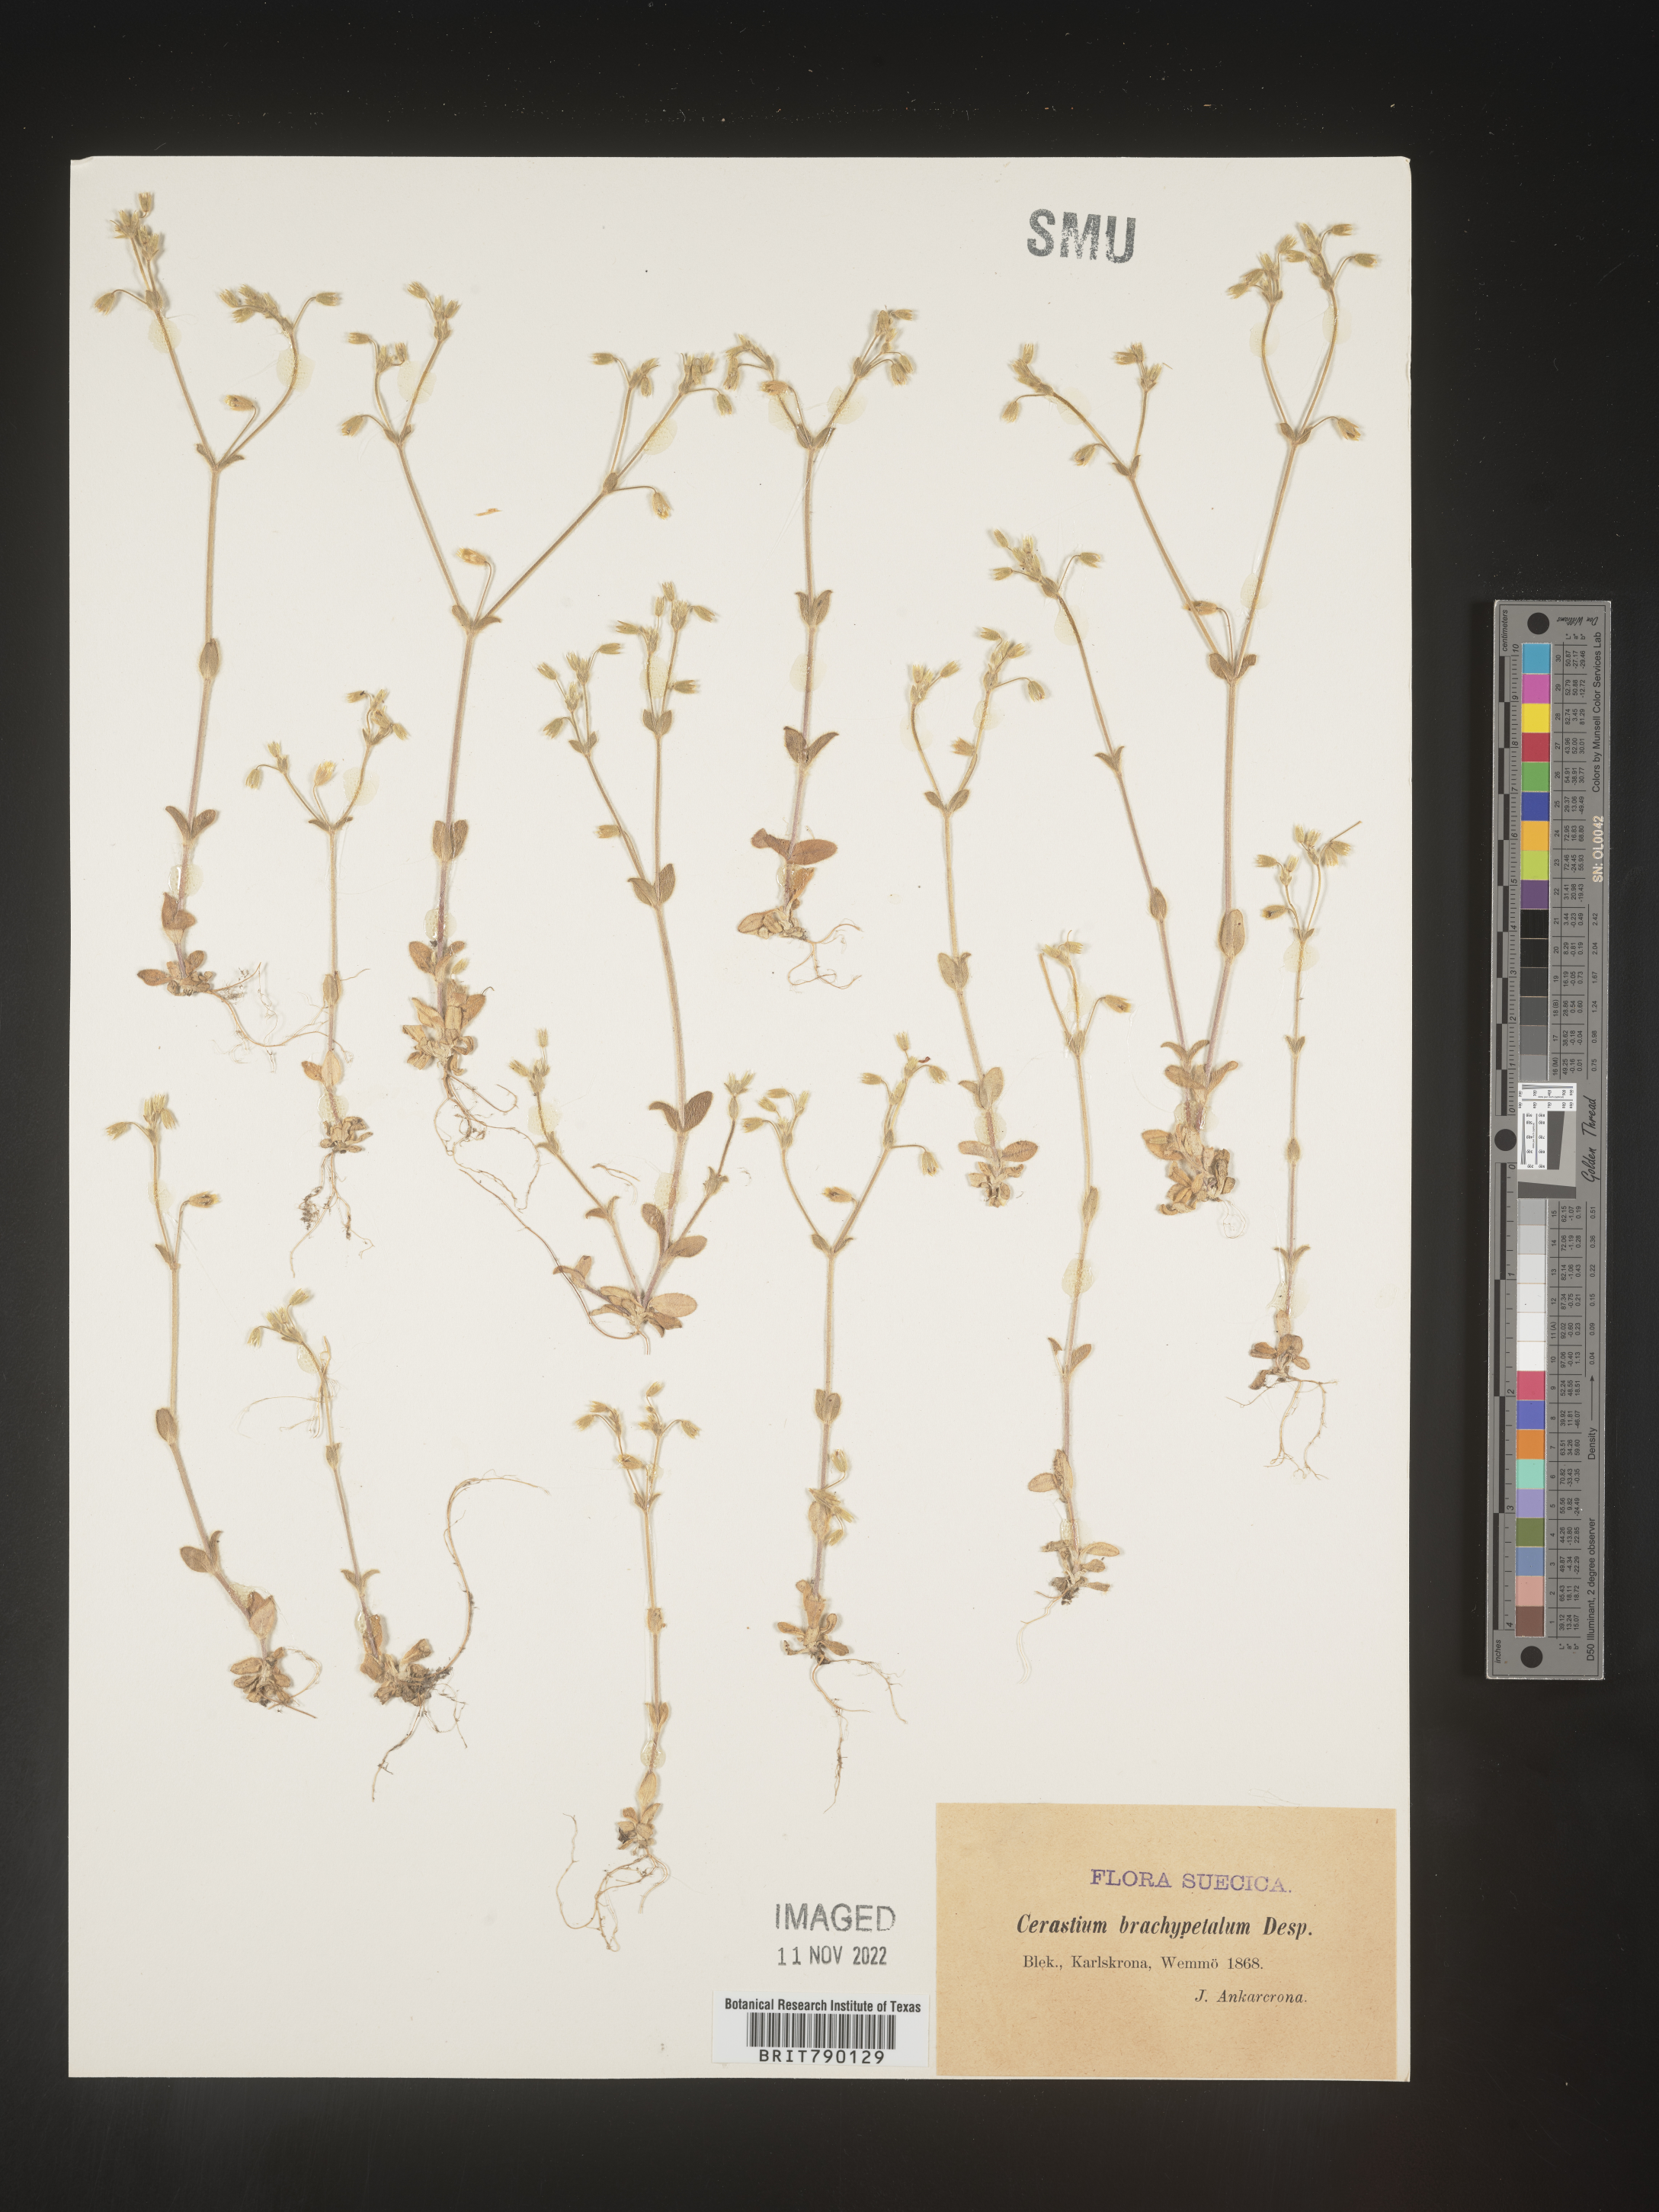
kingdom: Plantae
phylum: Tracheophyta
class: Magnoliopsida
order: Caryophyllales
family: Caryophyllaceae
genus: Cerastium
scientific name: Cerastium
